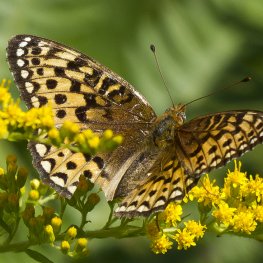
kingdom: Animalia
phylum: Arthropoda
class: Insecta
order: Lepidoptera
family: Nymphalidae
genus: Speyeria
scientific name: Speyeria atlantis
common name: Atlantis Fritillary
